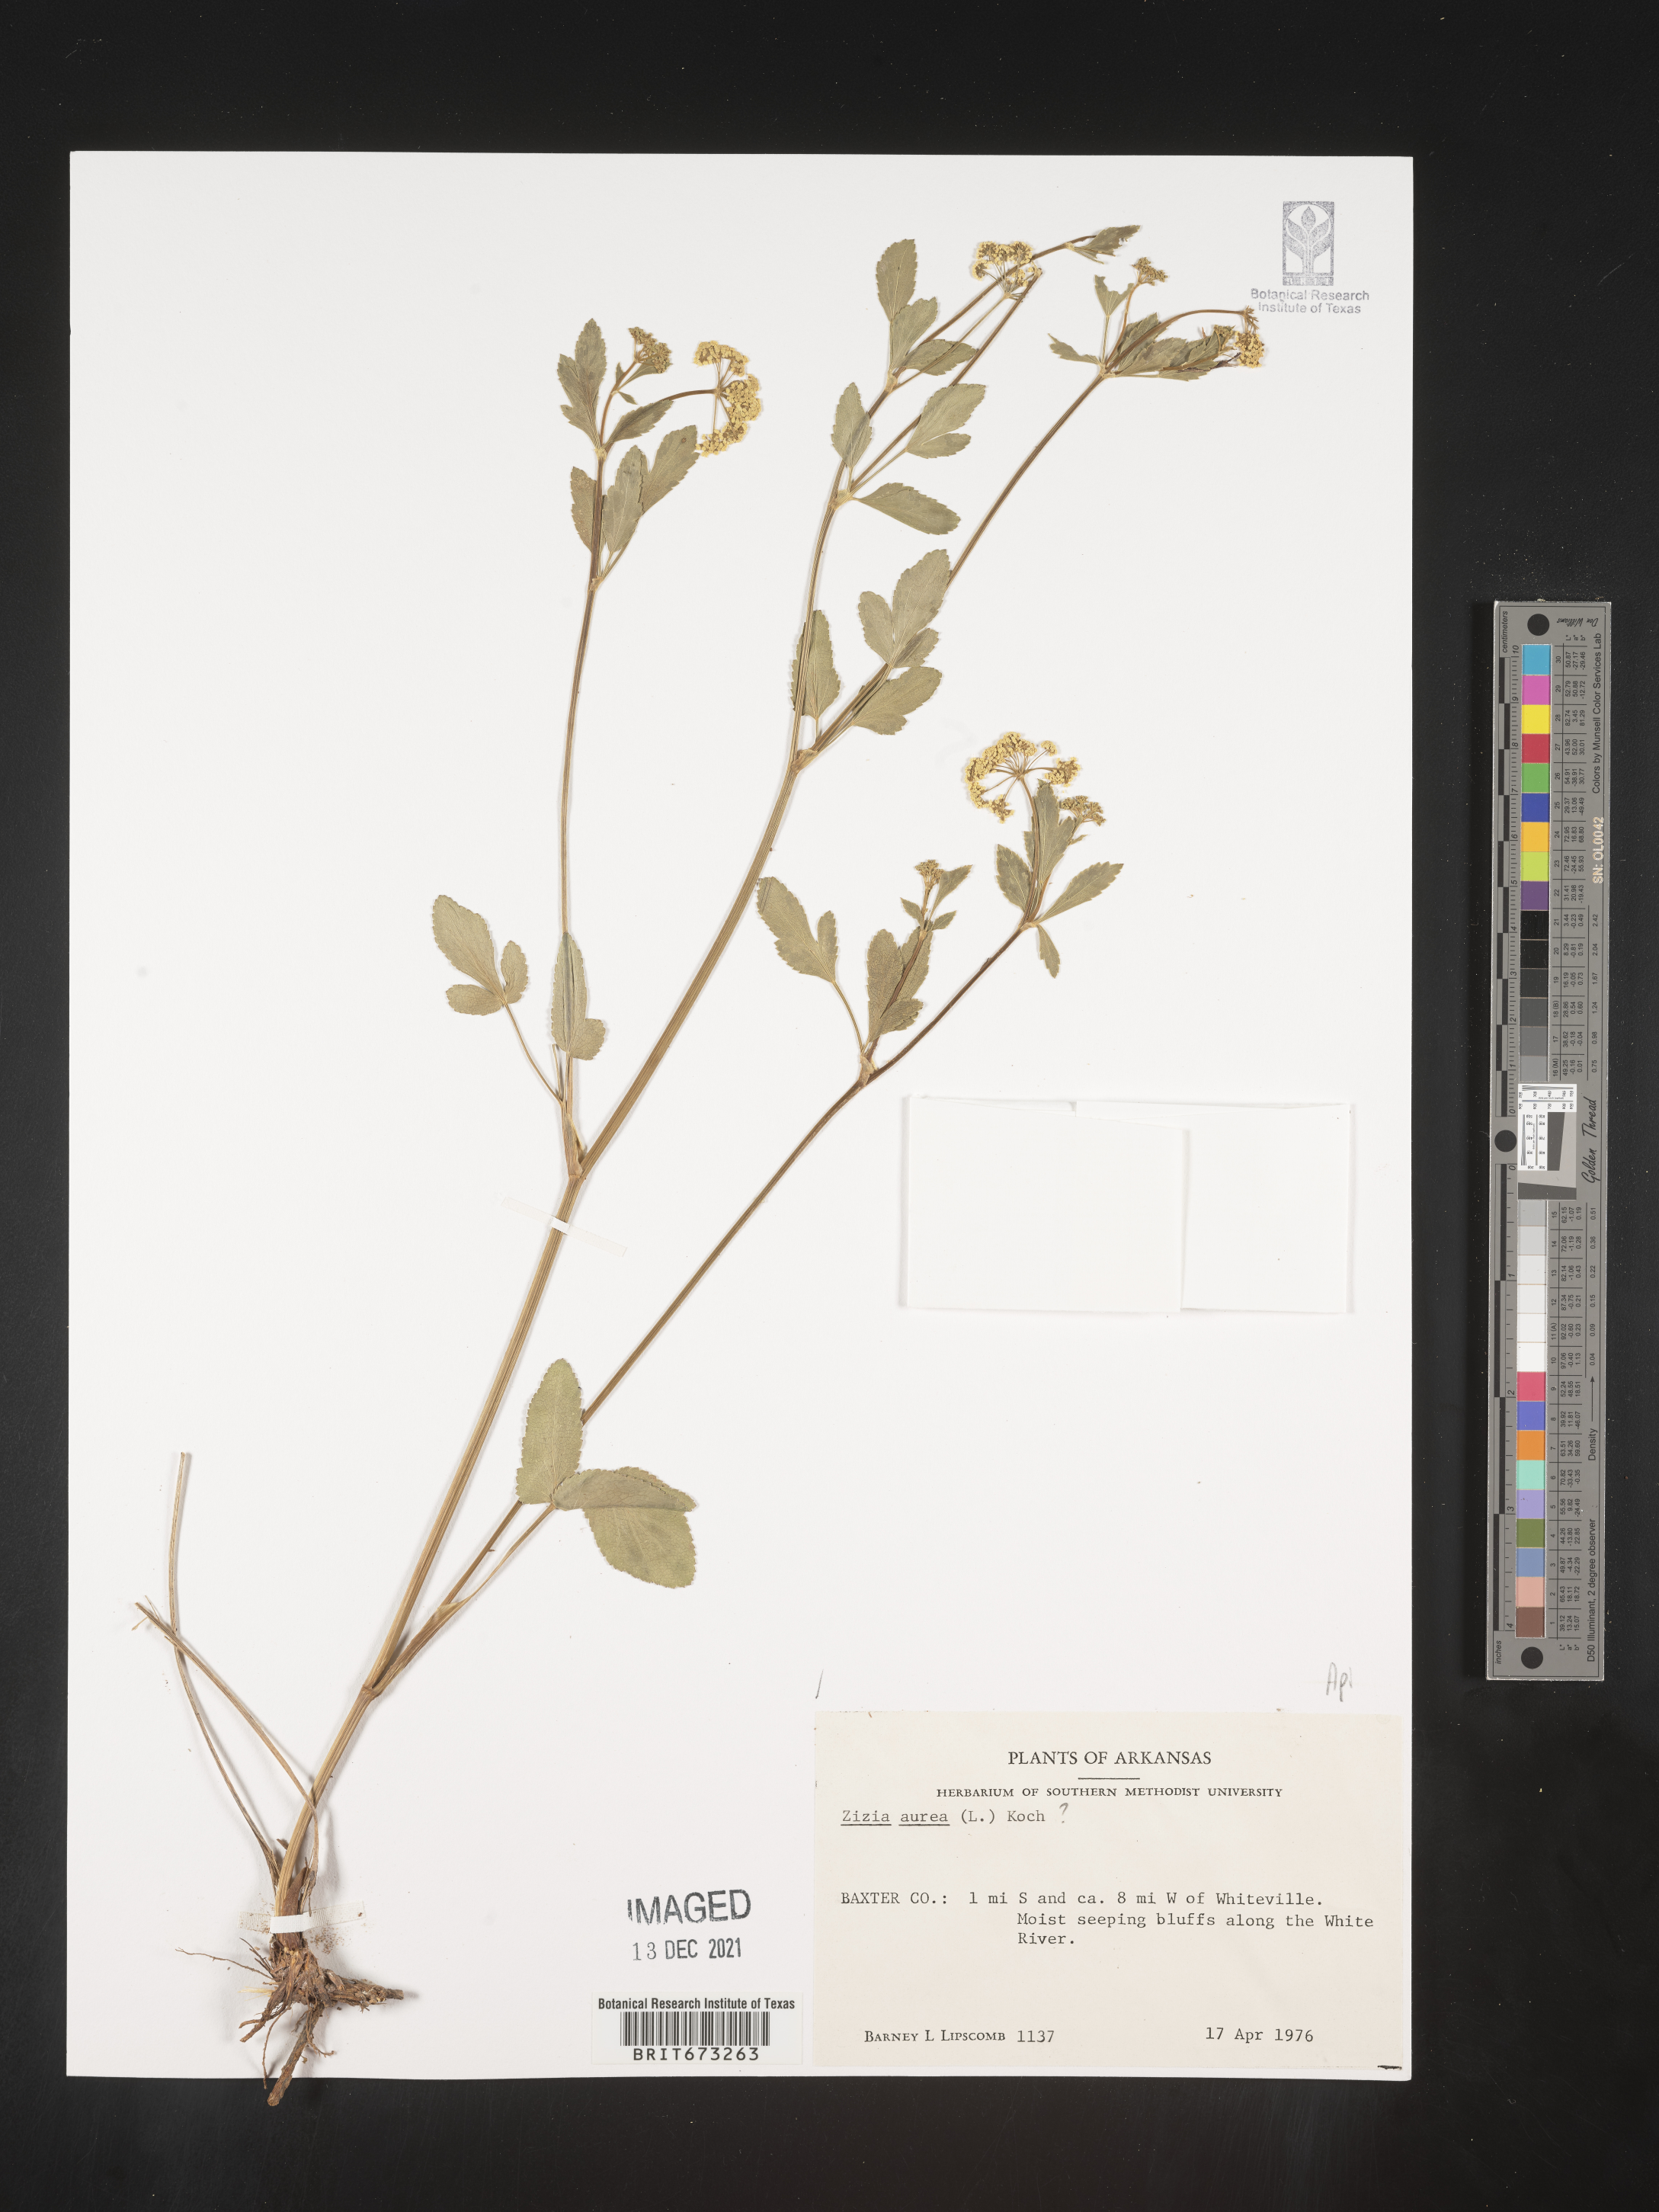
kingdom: Plantae
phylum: Tracheophyta
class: Magnoliopsida
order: Apiales
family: Apiaceae
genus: Zizia
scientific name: Zizia aurea
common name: Golden alexanders
